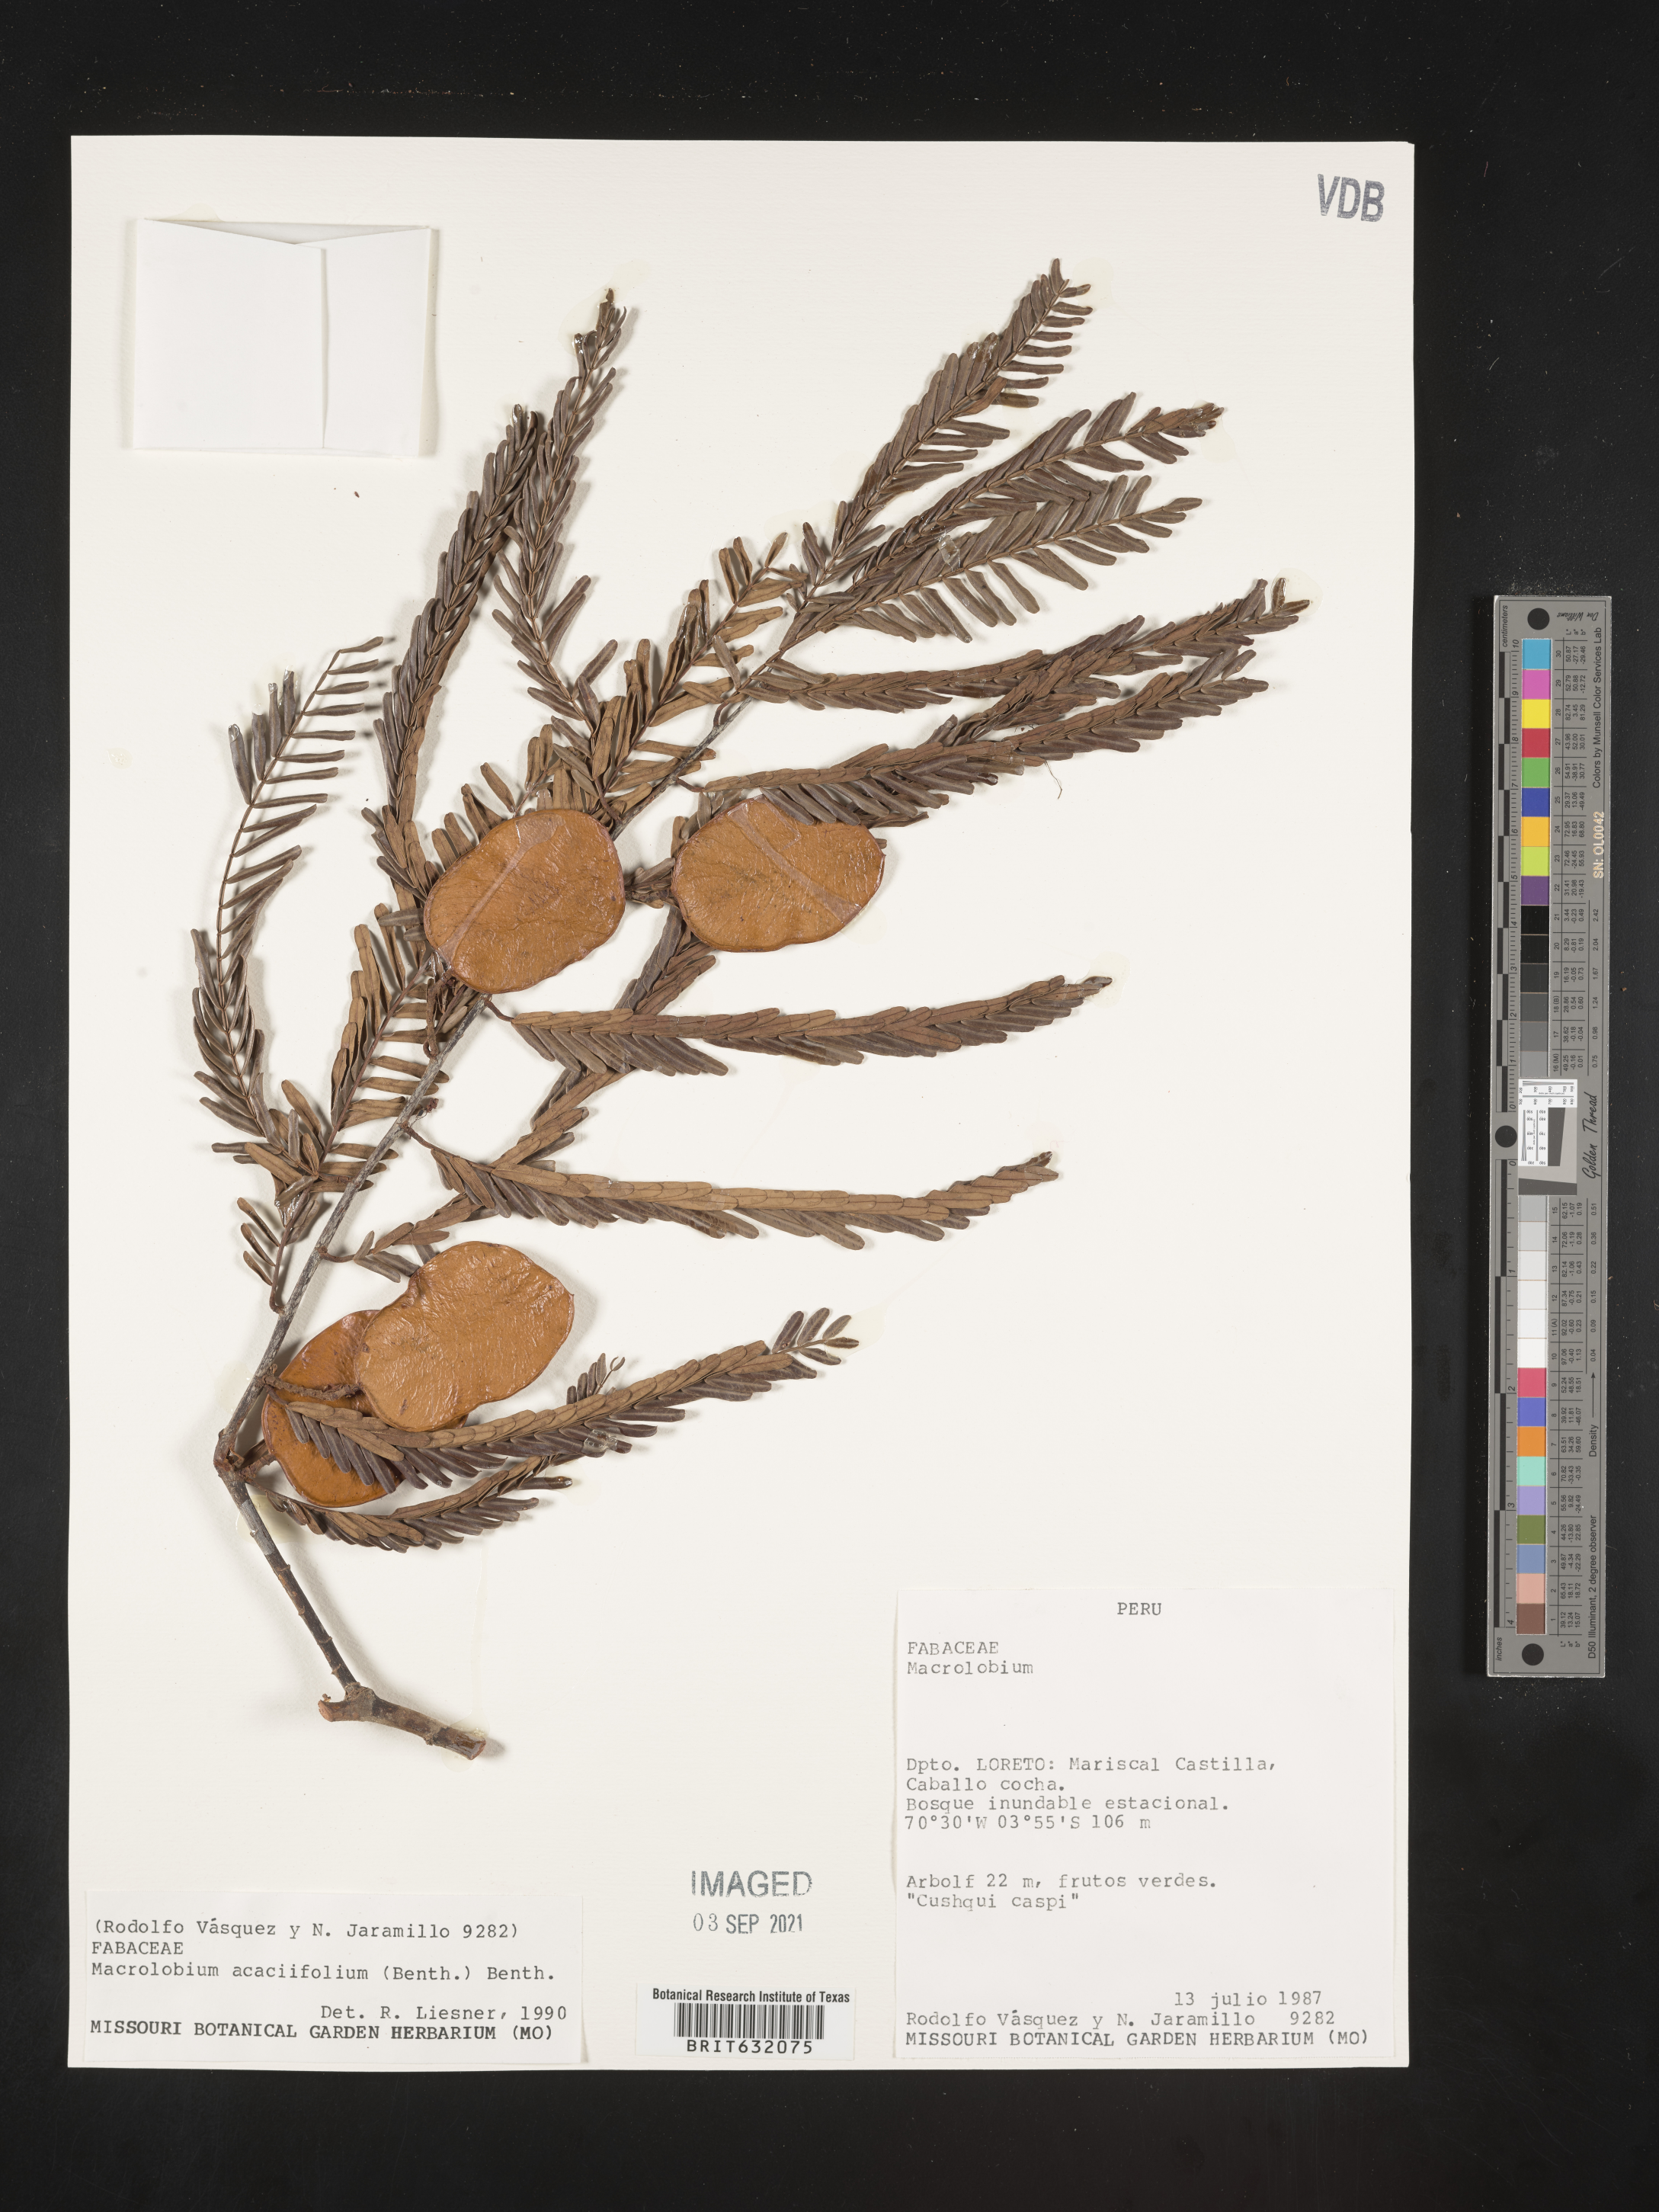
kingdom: Plantae
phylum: Tracheophyta
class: Magnoliopsida
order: Fabales
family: Fabaceae
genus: Macrolobium
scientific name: Macrolobium
